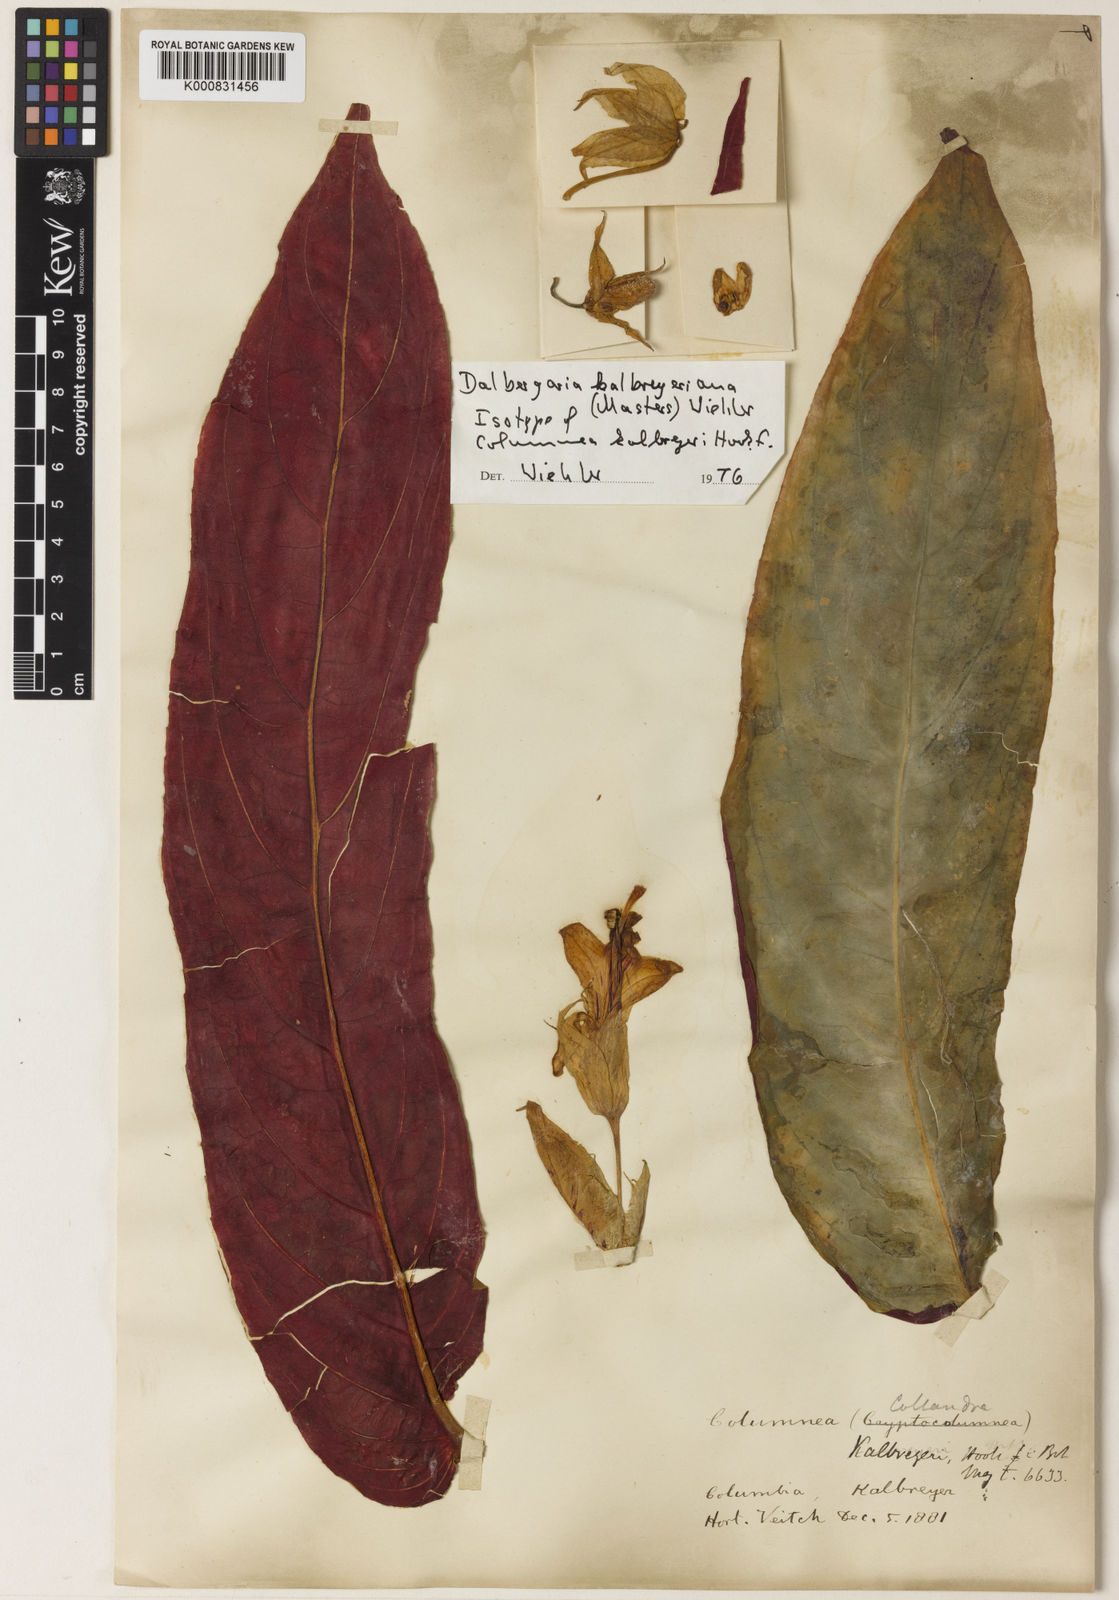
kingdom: Plantae
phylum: Tracheophyta
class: Magnoliopsida
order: Lamiales
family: Gesneriaceae
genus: Columnea
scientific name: Columnea kalbreyeriana
